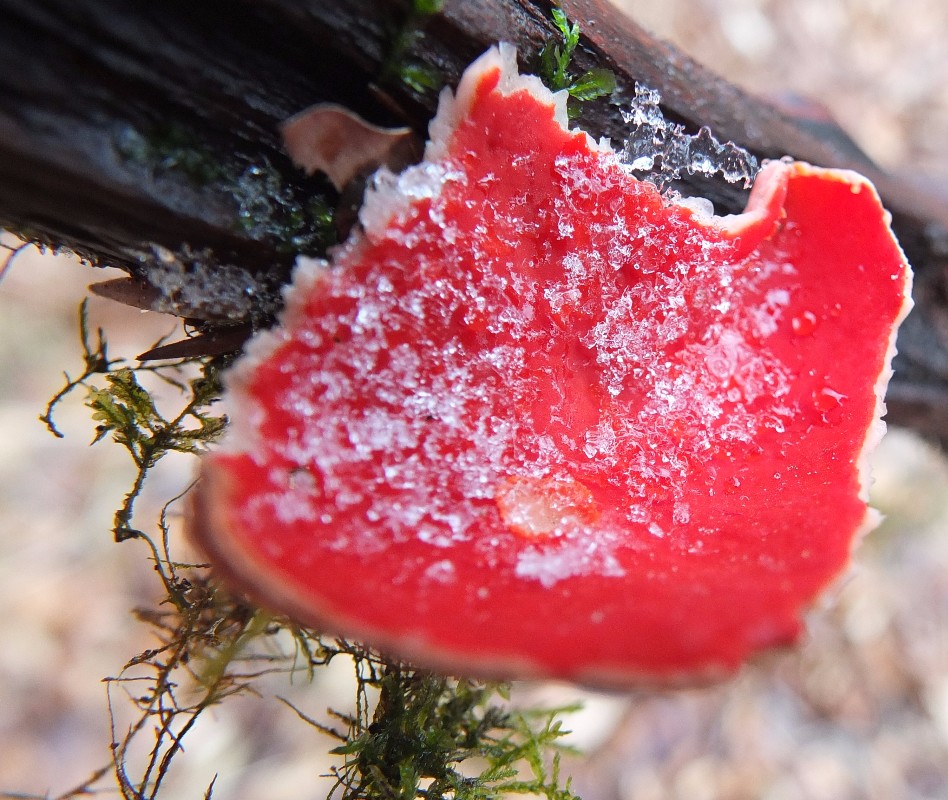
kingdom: Fungi
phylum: Ascomycota
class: Pezizomycetes
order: Pezizales
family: Sarcoscyphaceae
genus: Sarcoscypha
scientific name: Sarcoscypha coccinea
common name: skarlagen-pragtbæger
